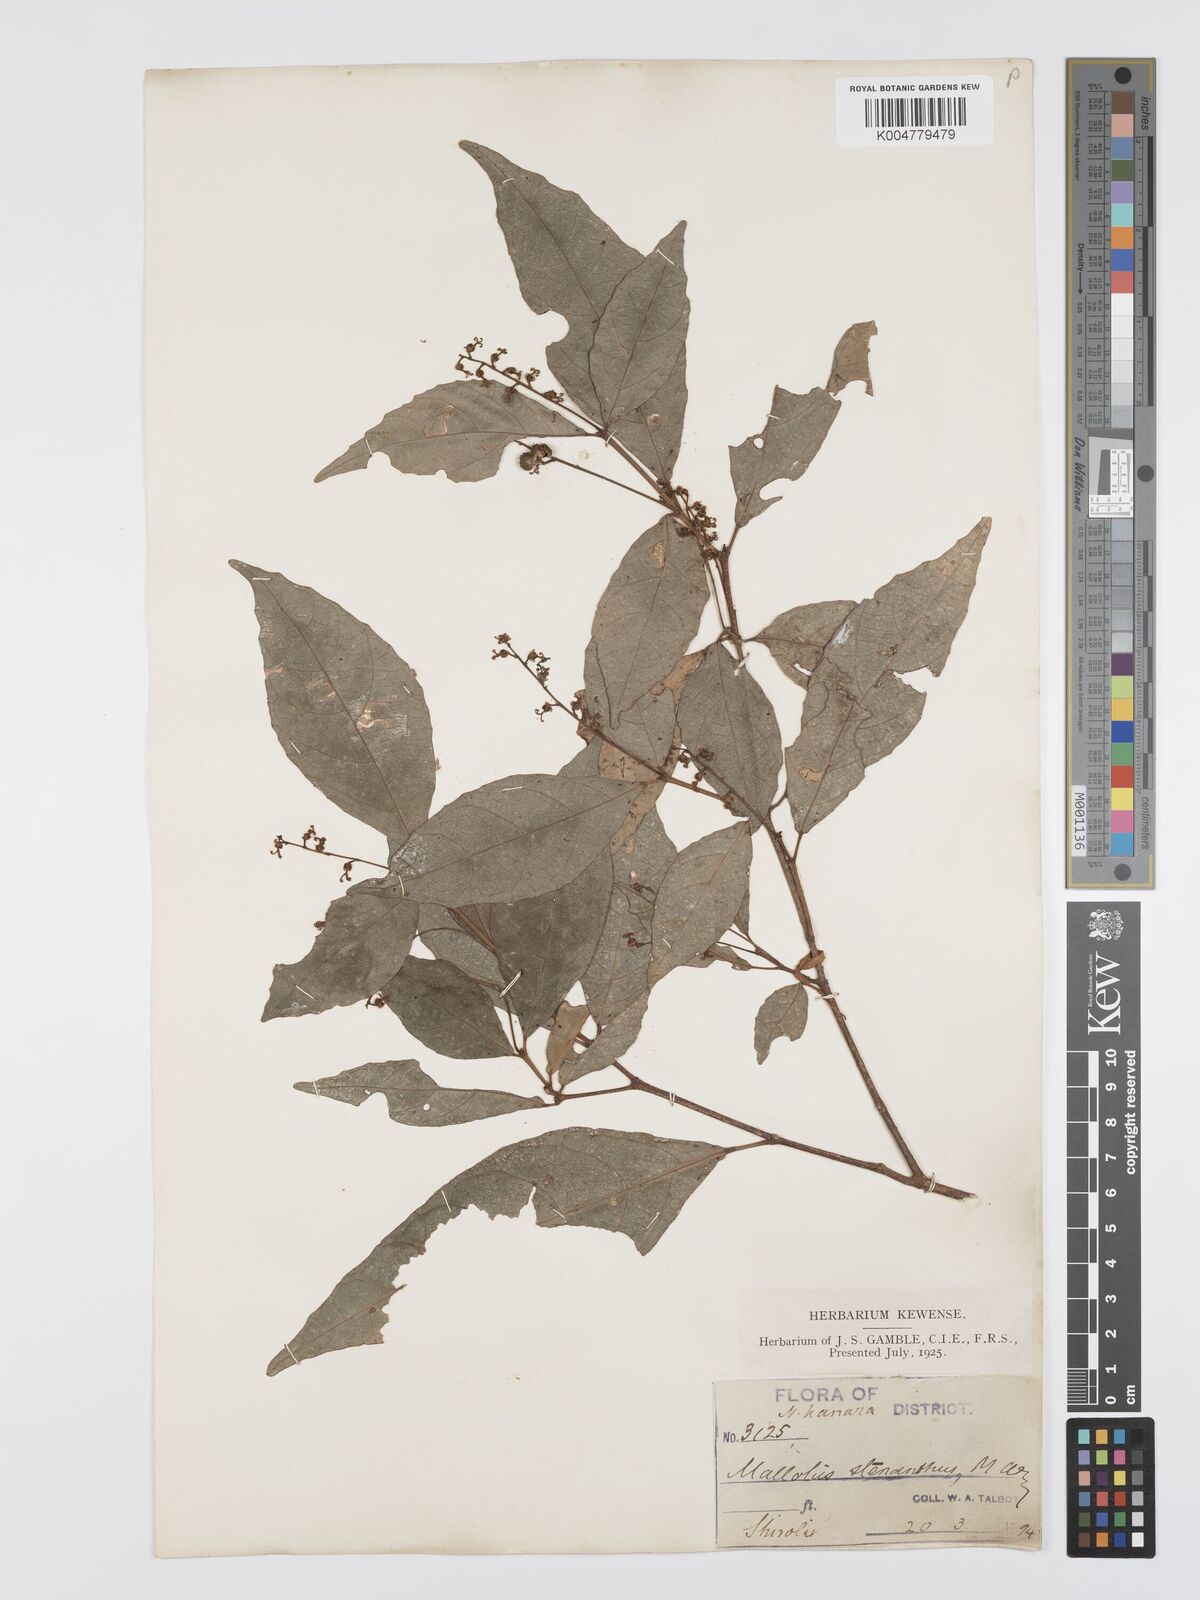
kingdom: Plantae
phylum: Tracheophyta
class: Magnoliopsida
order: Malpighiales
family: Euphorbiaceae
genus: Mallotus
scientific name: Mallotus resinosus
